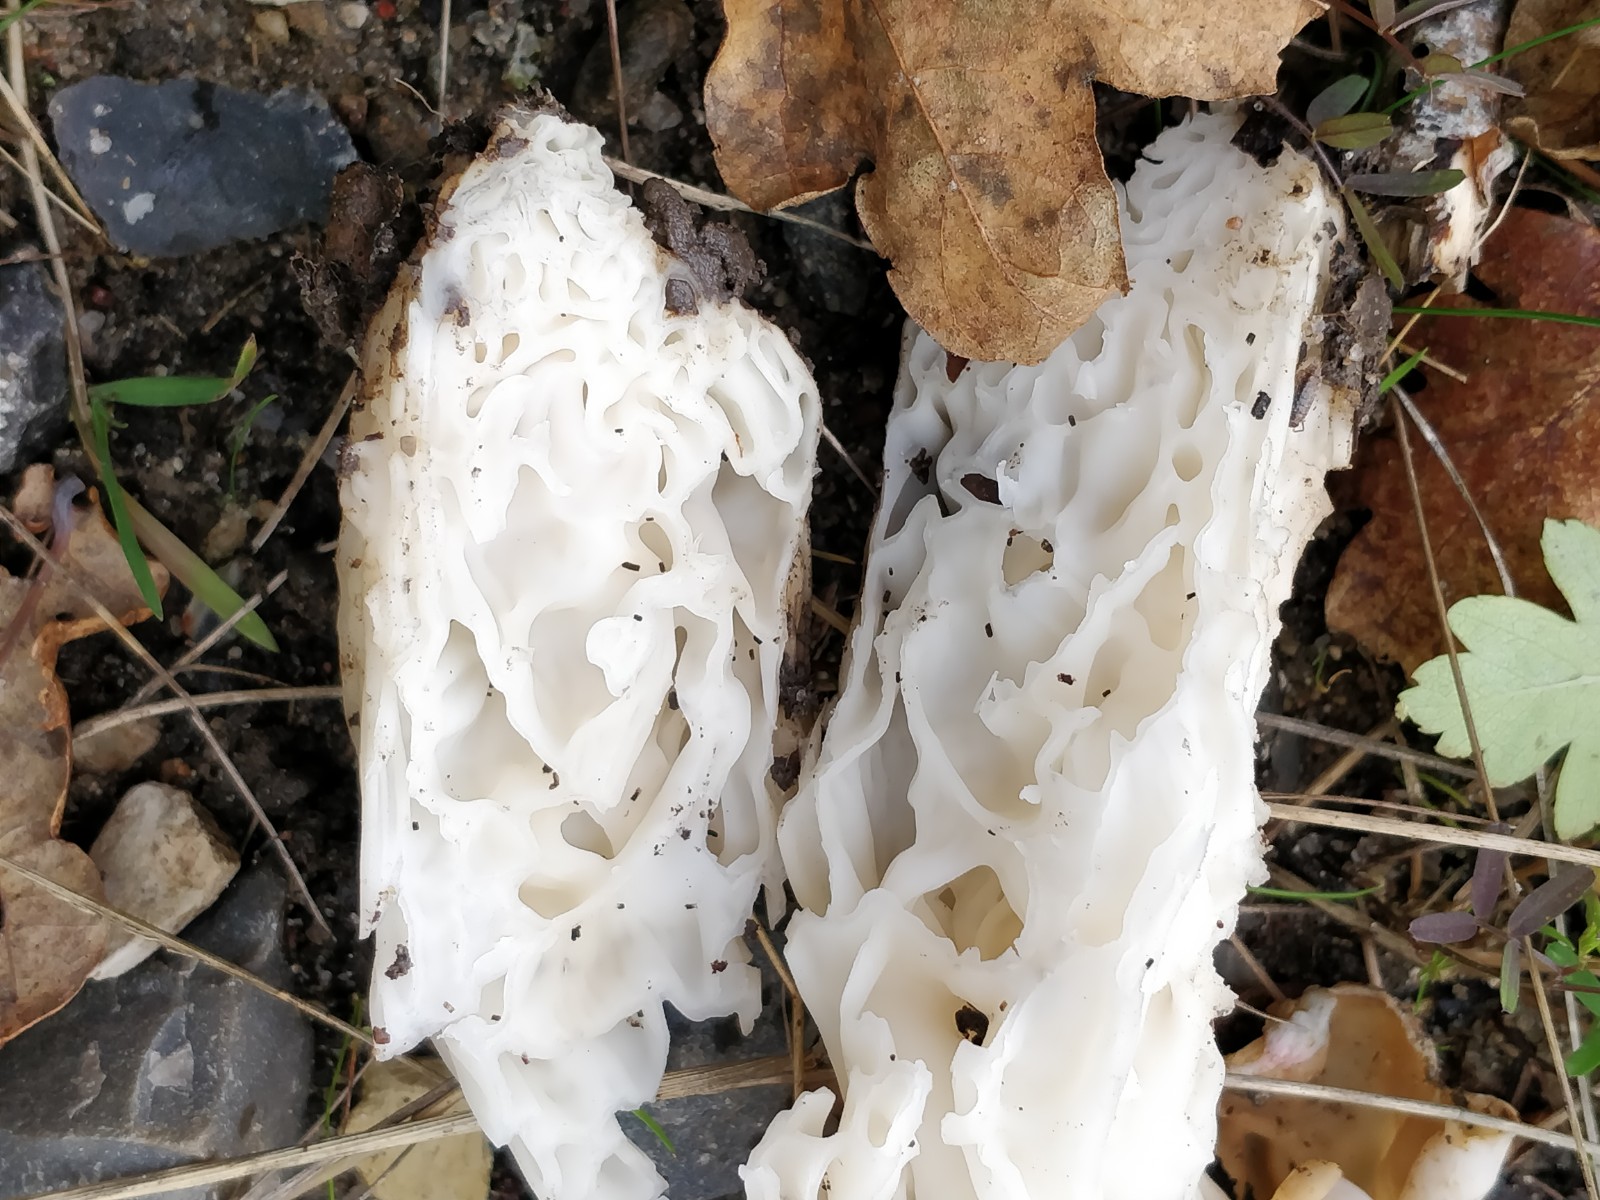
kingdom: Fungi
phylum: Ascomycota
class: Pezizomycetes
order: Pezizales
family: Helvellaceae
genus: Helvella
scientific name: Helvella crispa
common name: kruset foldhat
